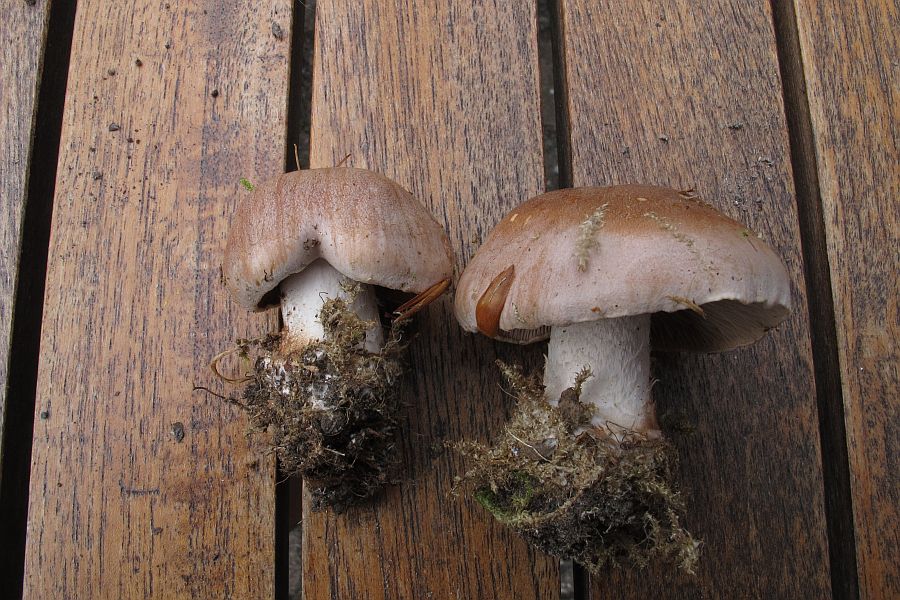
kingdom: Fungi
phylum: Basidiomycota
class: Agaricomycetes
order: Agaricales
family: Hymenogastraceae
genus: Hebeloma
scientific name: Hebeloma theobrominum
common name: rødbrun tåreblad
